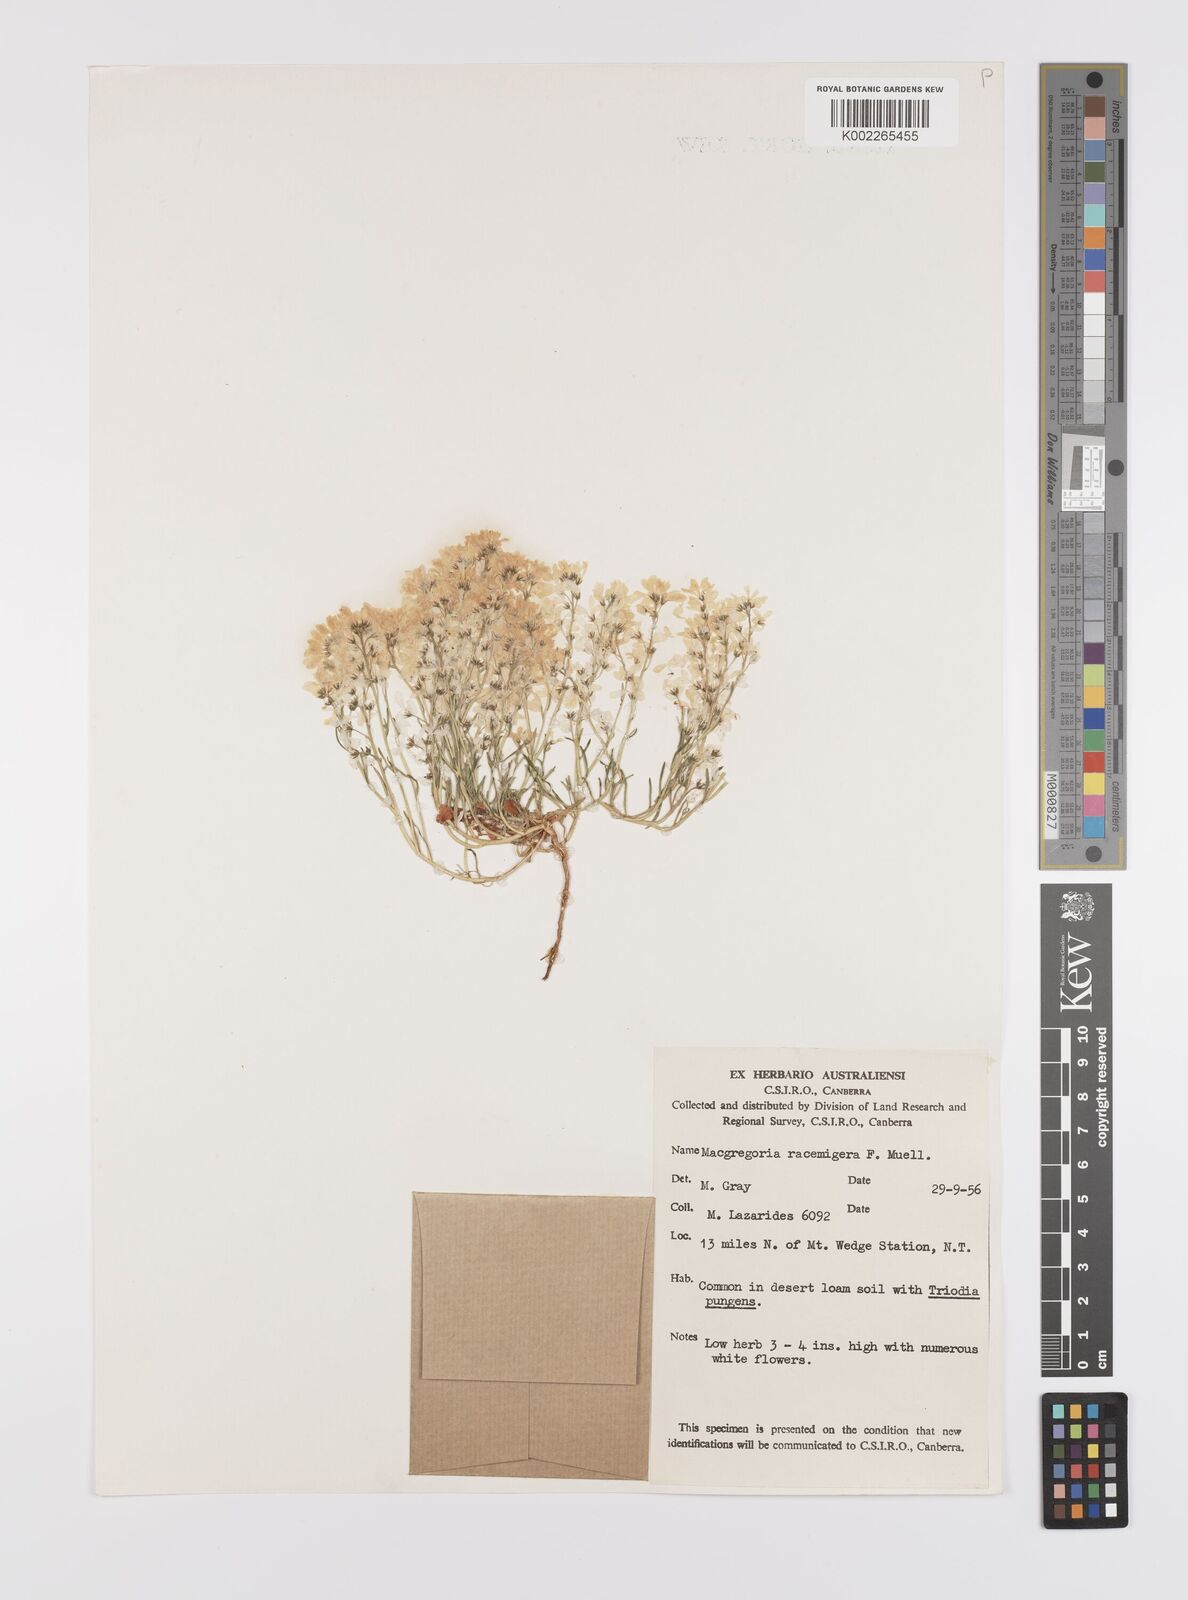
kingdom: Plantae
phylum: Tracheophyta
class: Magnoliopsida
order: Celastrales
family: Celastraceae
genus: Macgregoria
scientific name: Macgregoria racemigera
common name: Carpet-of-snow
